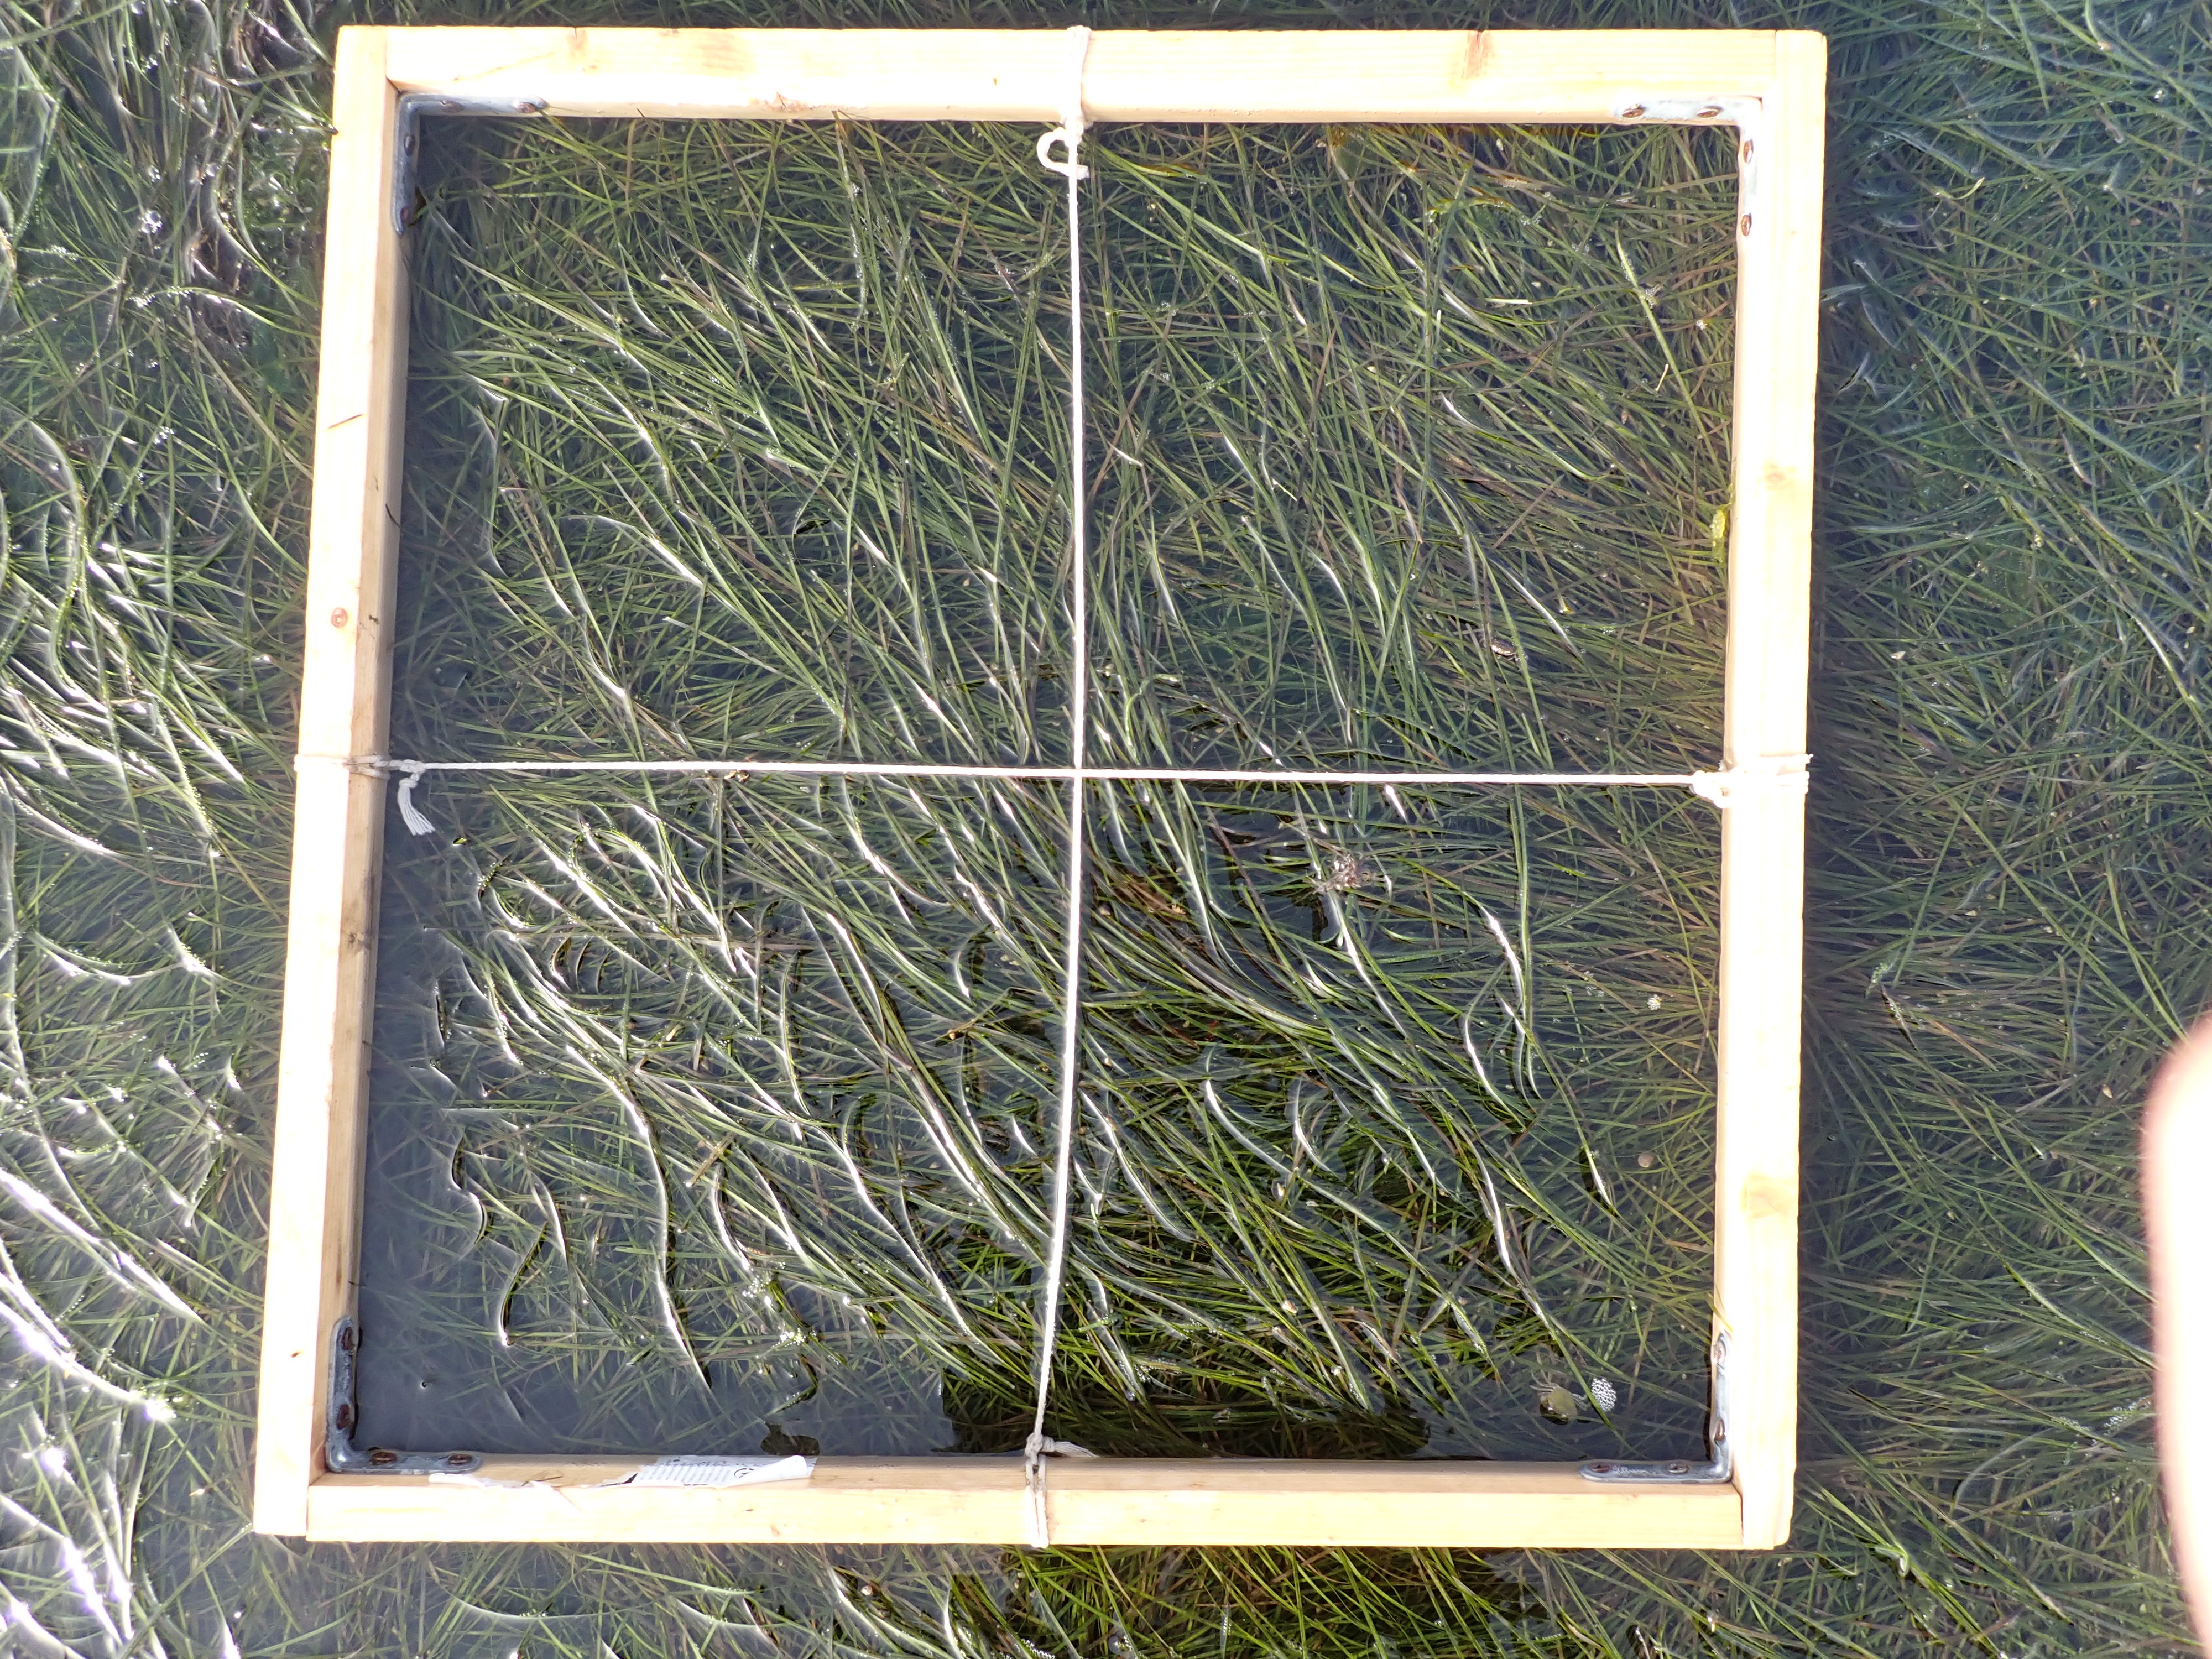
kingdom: Plantae
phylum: Tracheophyta
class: Liliopsida
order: Alismatales
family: Zosteraceae
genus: Zostera
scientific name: Zostera noltii
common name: Dwarf eelgrass
